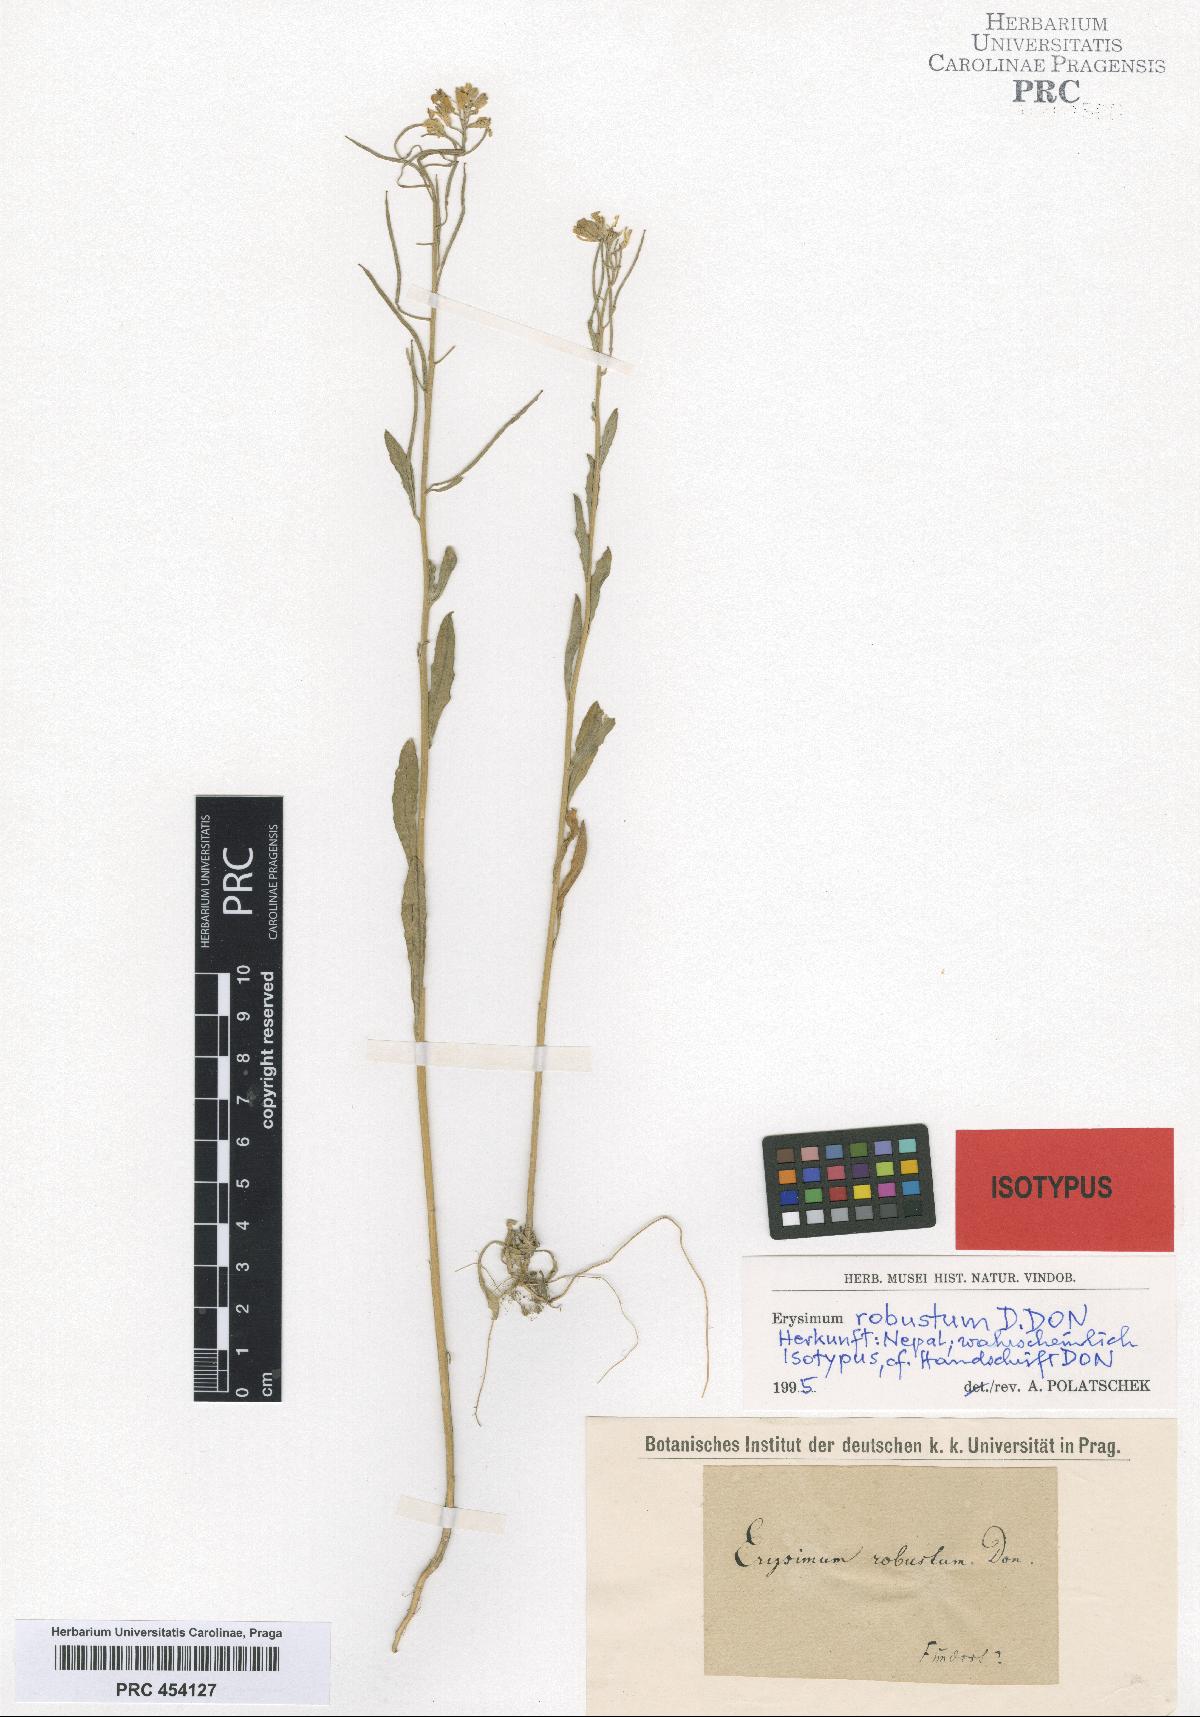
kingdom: Plantae
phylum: Tracheophyta
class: Magnoliopsida
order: Brassicales
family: Brassicaceae
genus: Erysimum
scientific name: Erysimum hieraciifolium
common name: European wallflower
